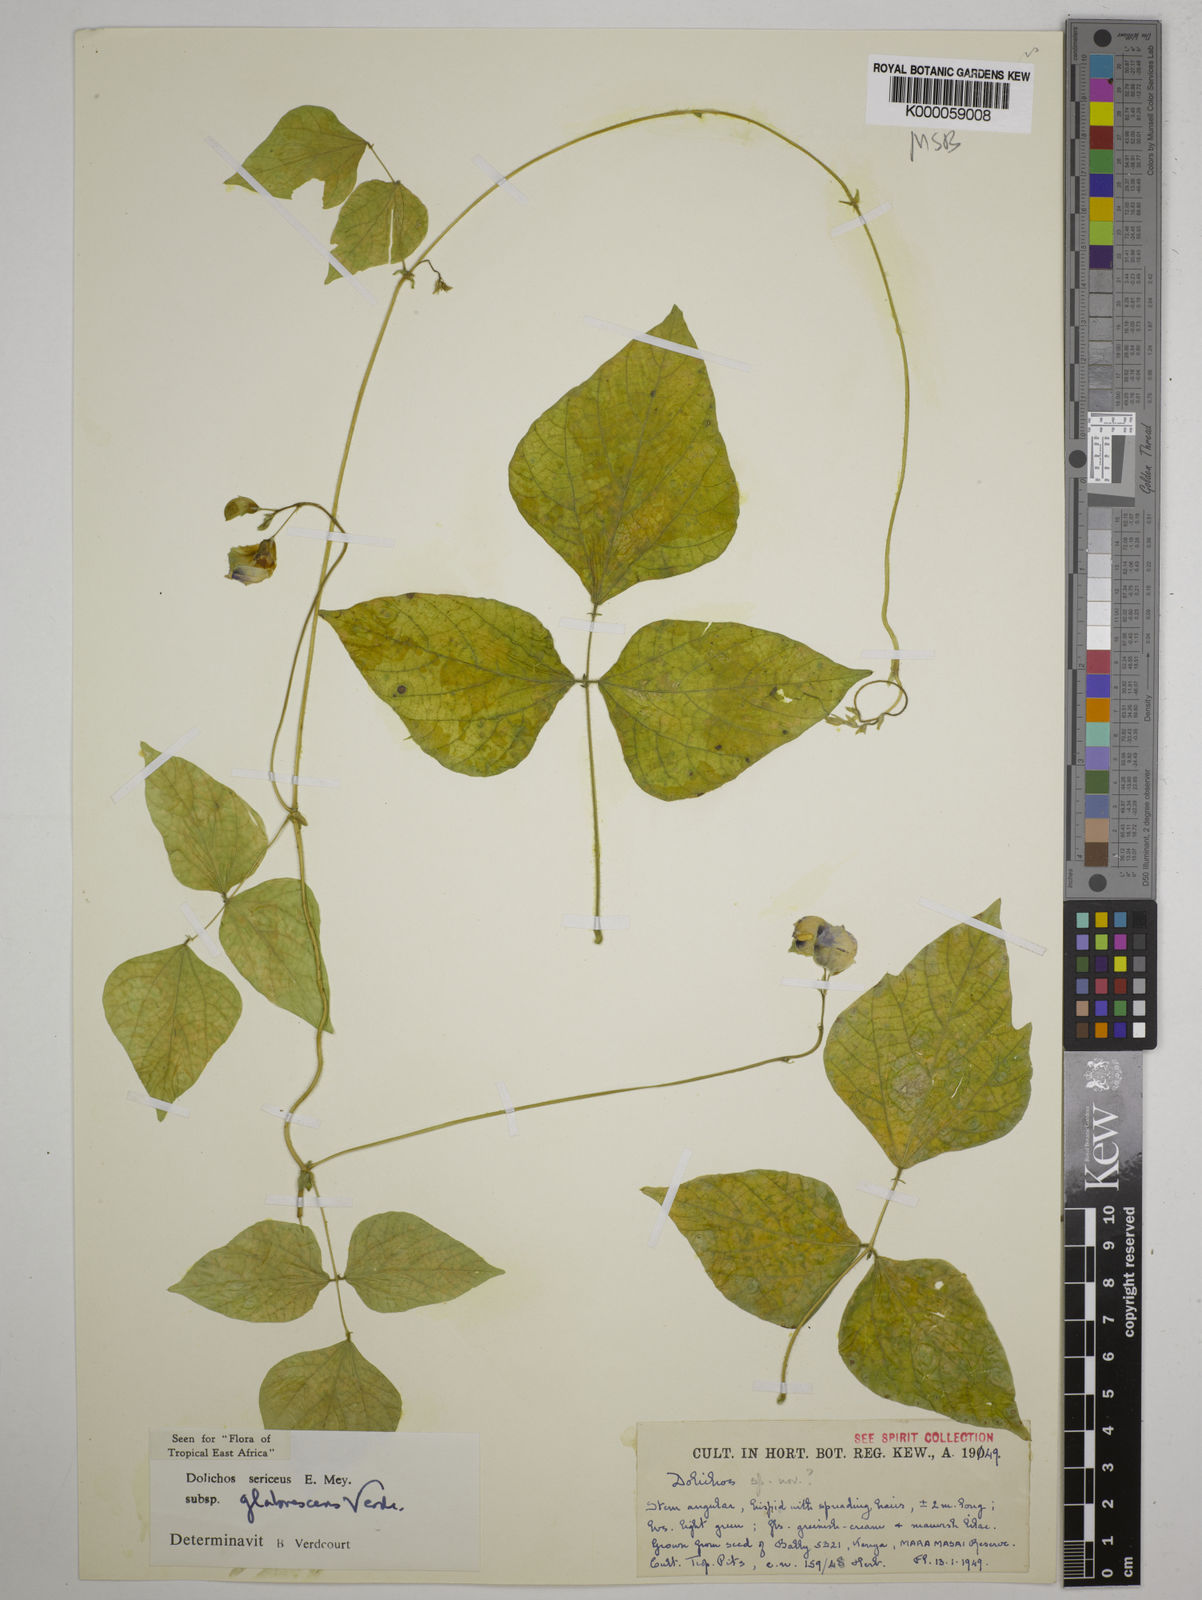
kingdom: Plantae
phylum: Tracheophyta
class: Magnoliopsida
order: Fabales
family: Fabaceae
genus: Dolichos
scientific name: Dolichos sericeus
